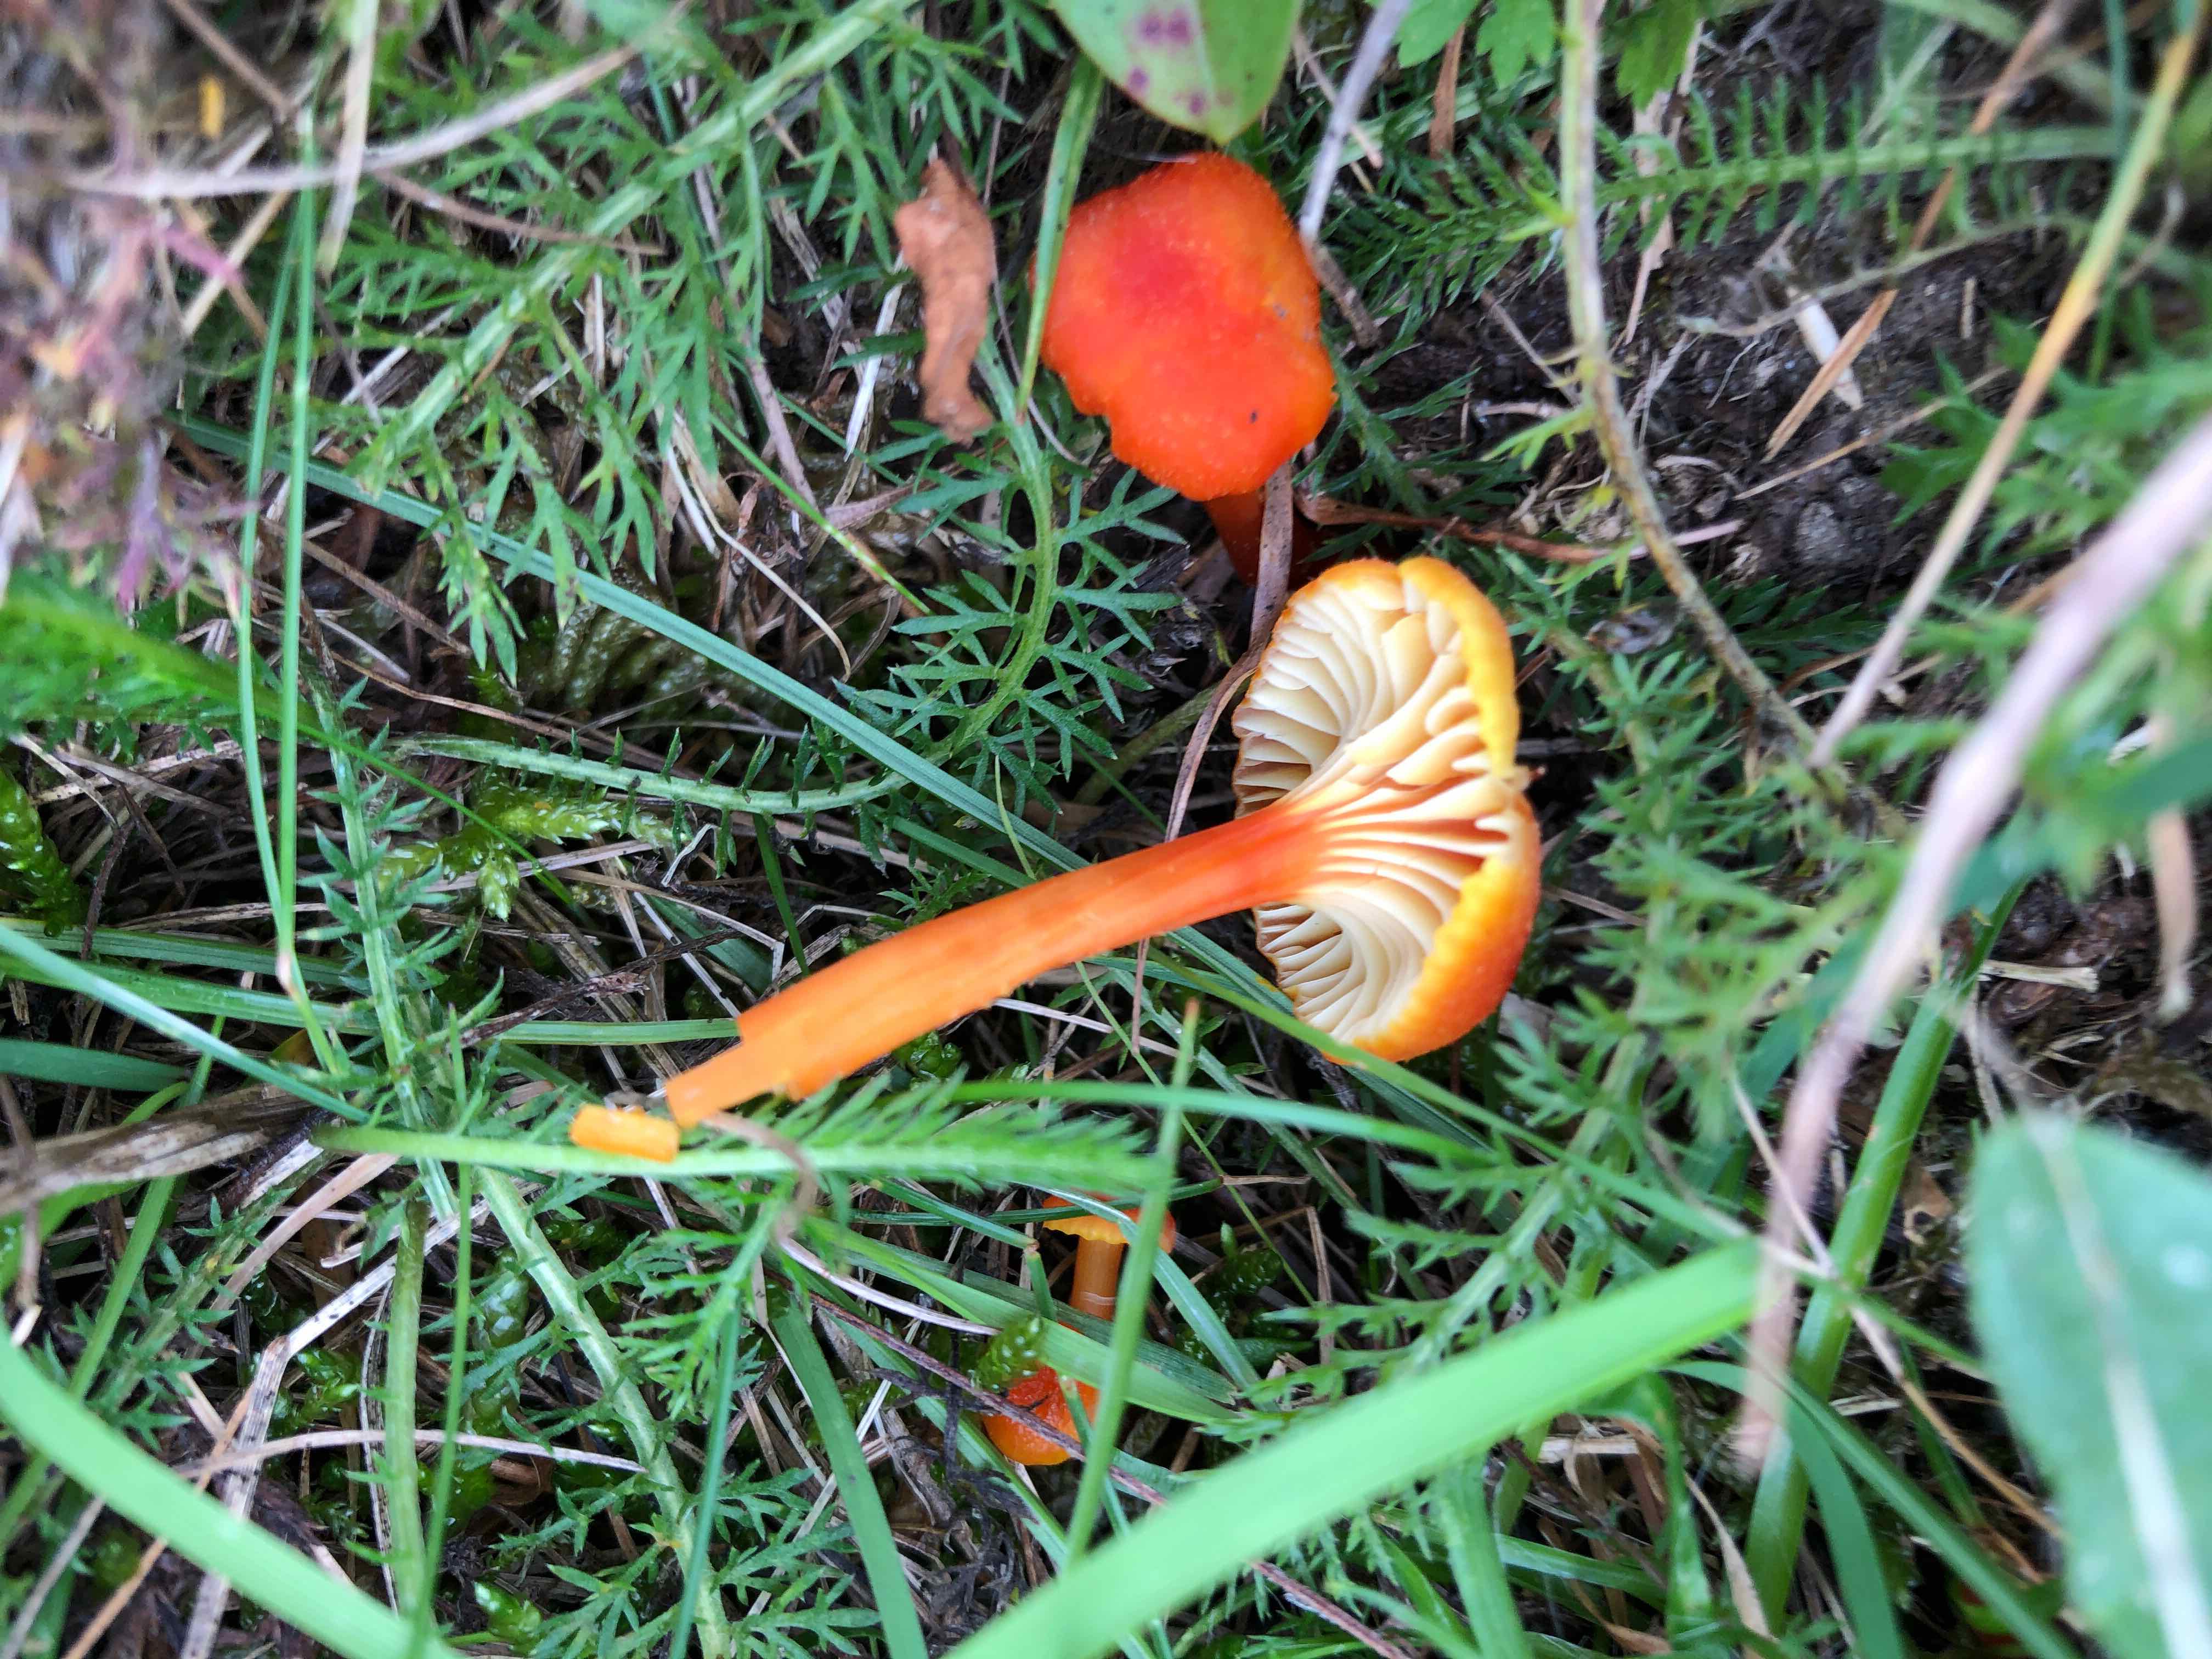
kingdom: Fungi
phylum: Basidiomycota
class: Agaricomycetes
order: Agaricales
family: Hygrophoraceae
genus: Hygrocybe
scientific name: Hygrocybe cantharellus
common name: kantarel-vokshat
